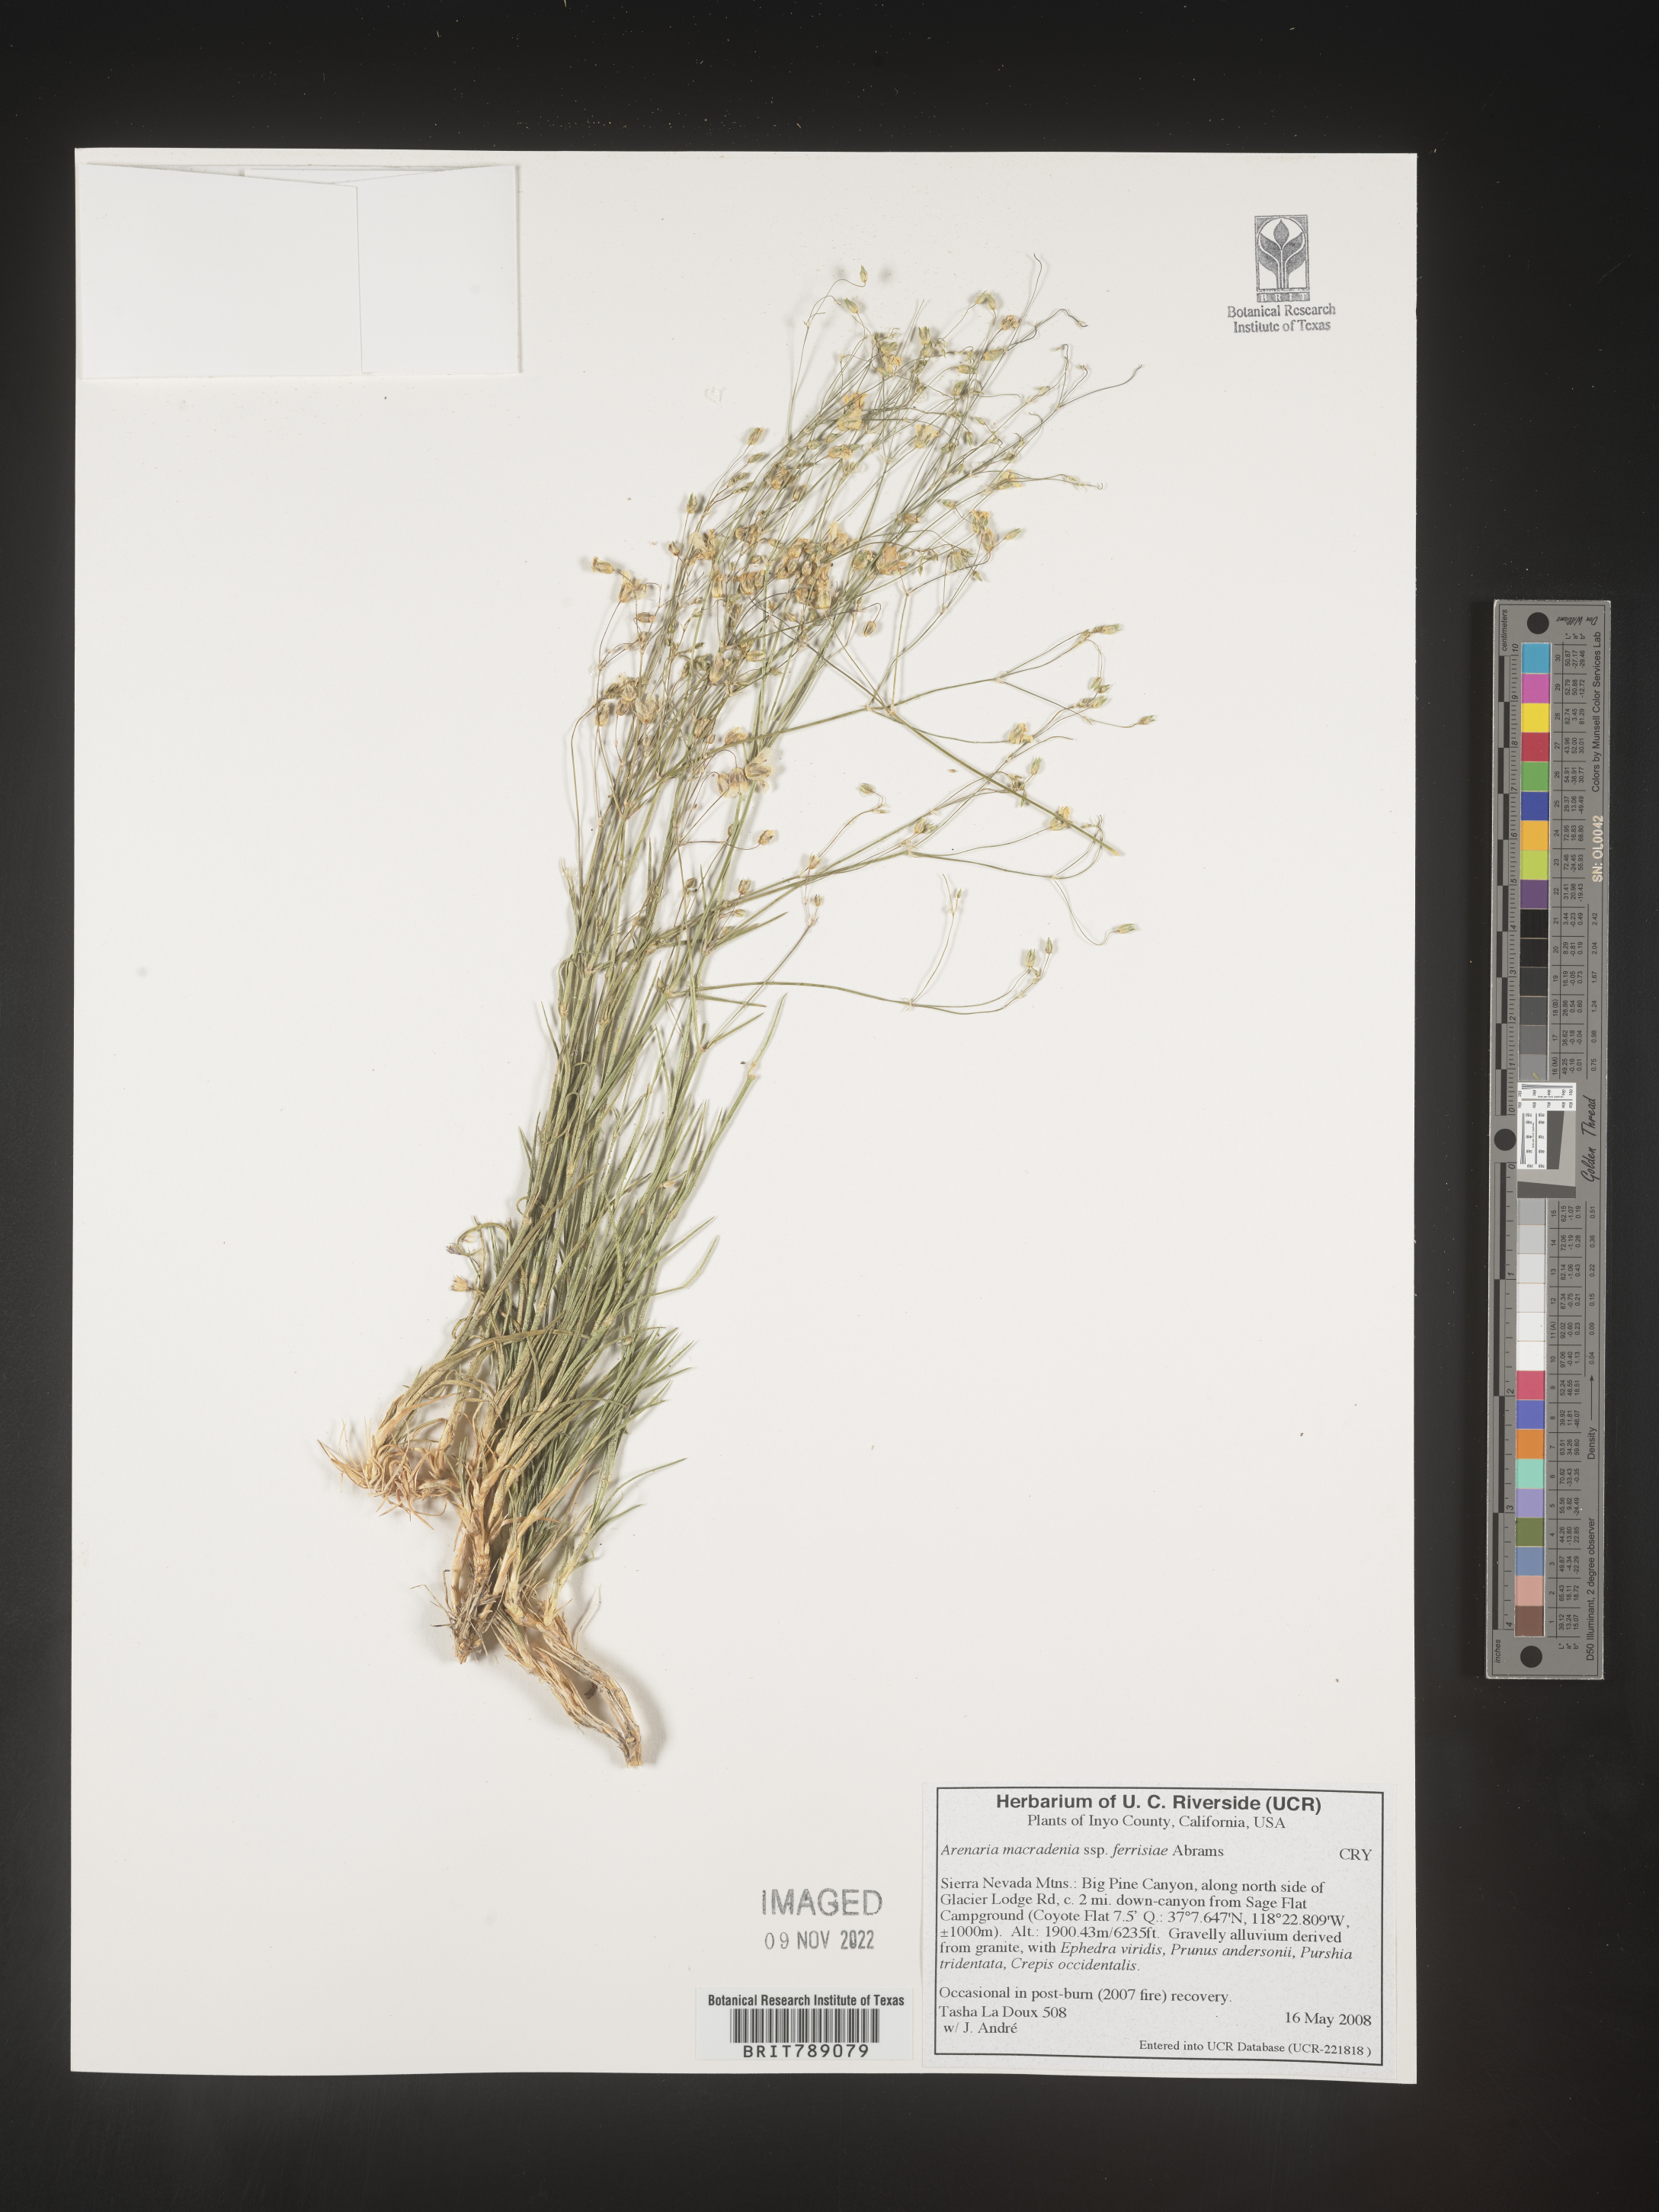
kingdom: Plantae
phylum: Tracheophyta
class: Magnoliopsida
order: Caryophyllales
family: Caryophyllaceae
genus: Arenaria
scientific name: Arenaria
